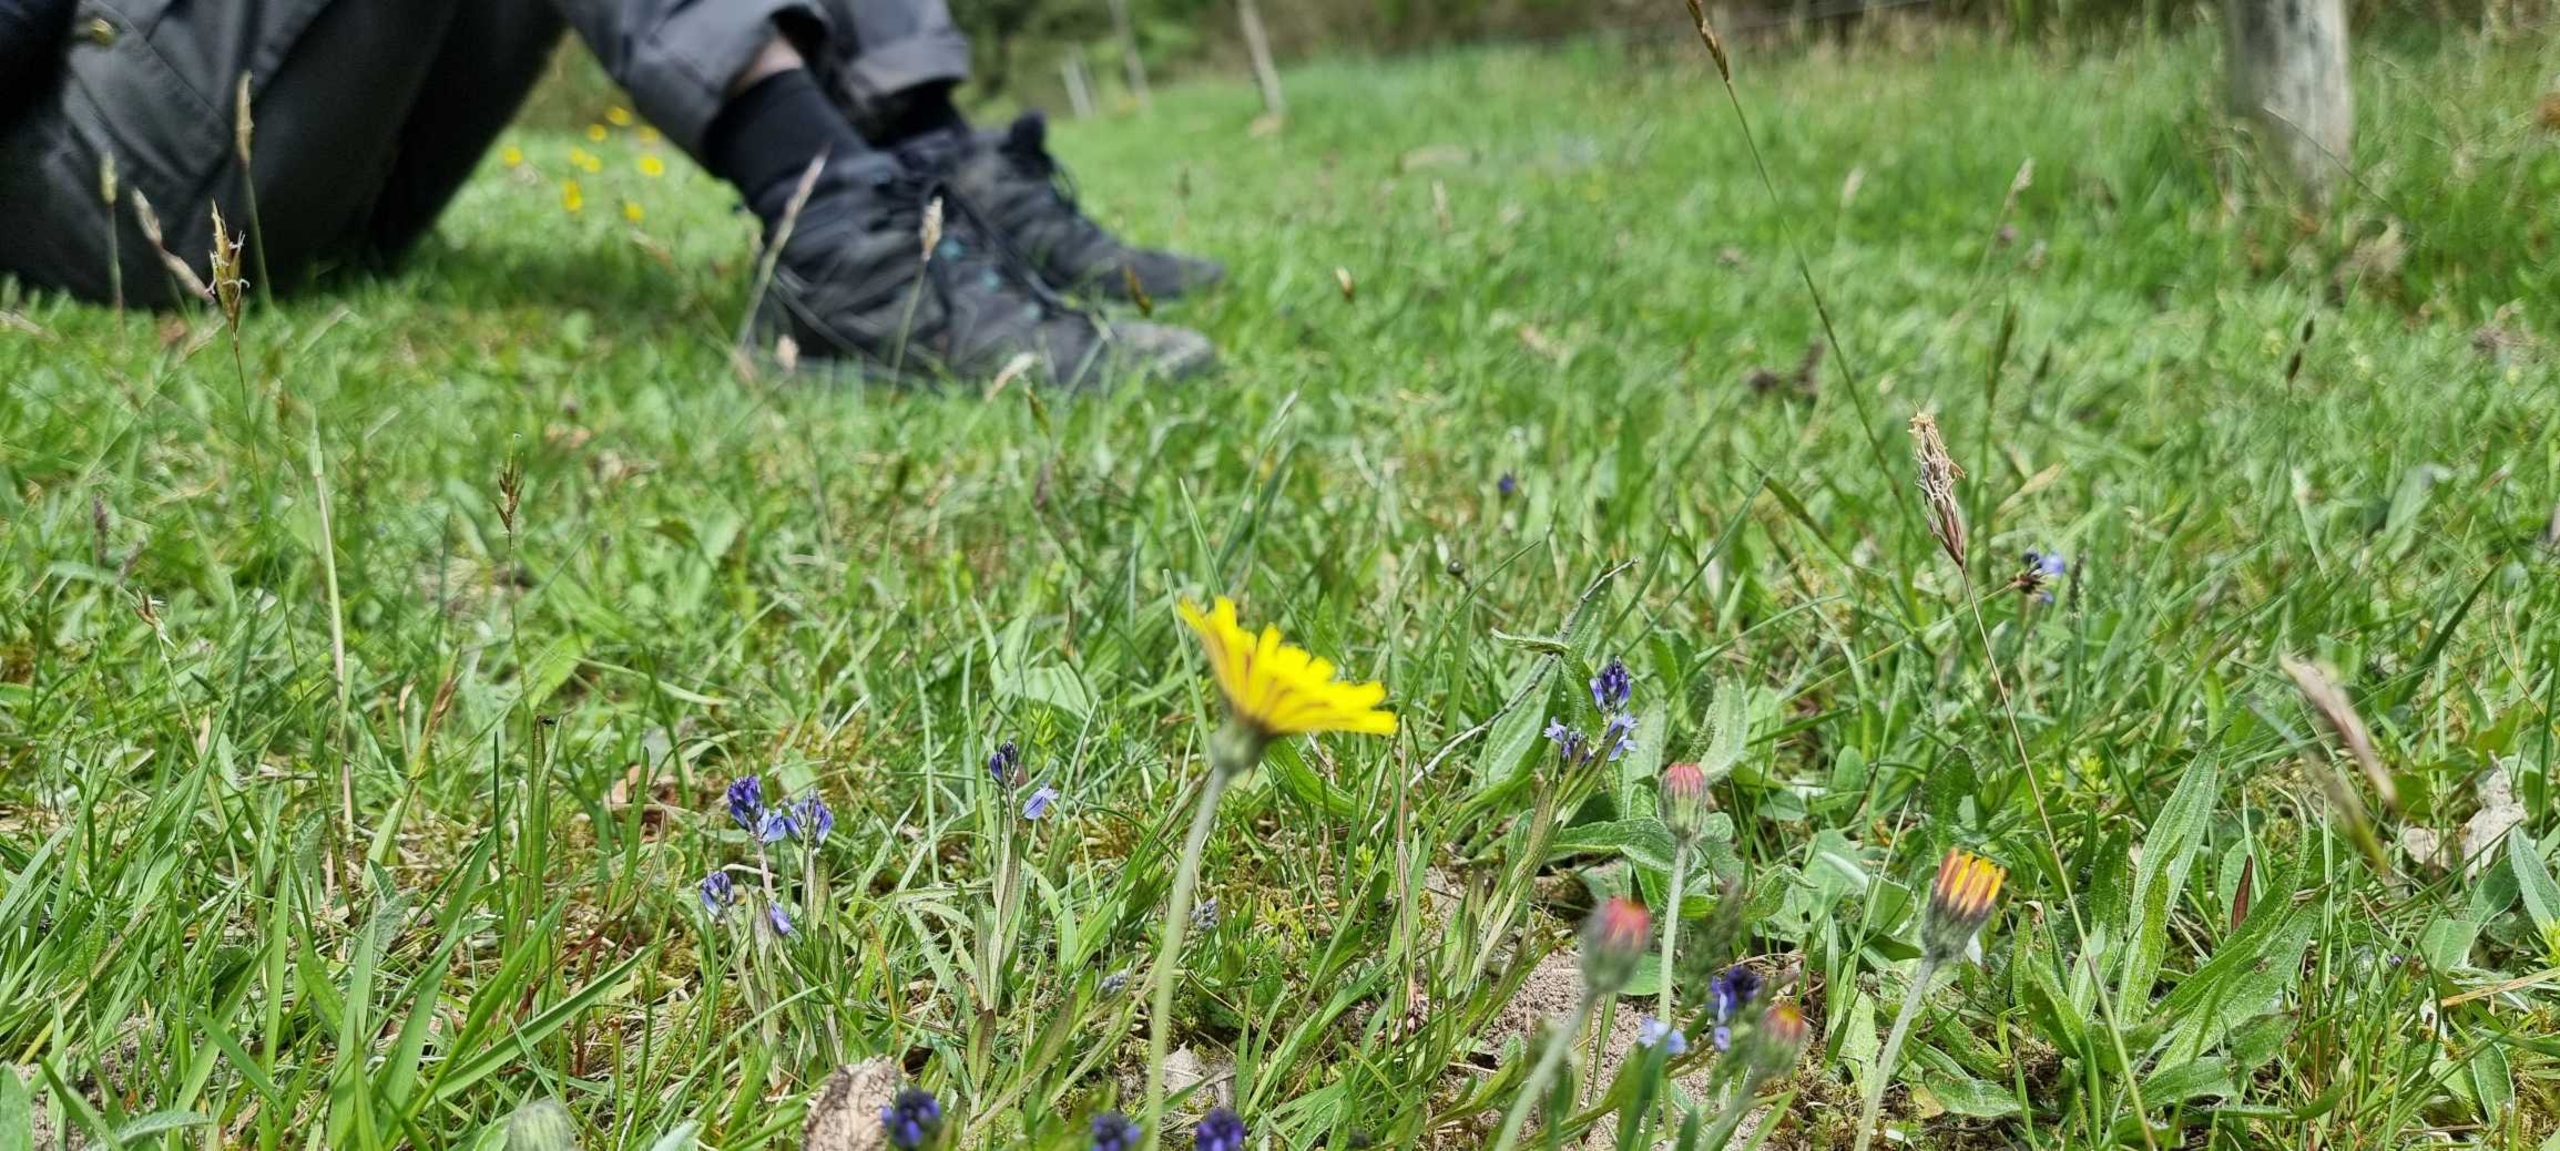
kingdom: Plantae
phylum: Tracheophyta
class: Magnoliopsida
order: Asterales
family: Asteraceae
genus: Pilosella
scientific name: Pilosella officinarum
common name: Håret høgeurt
